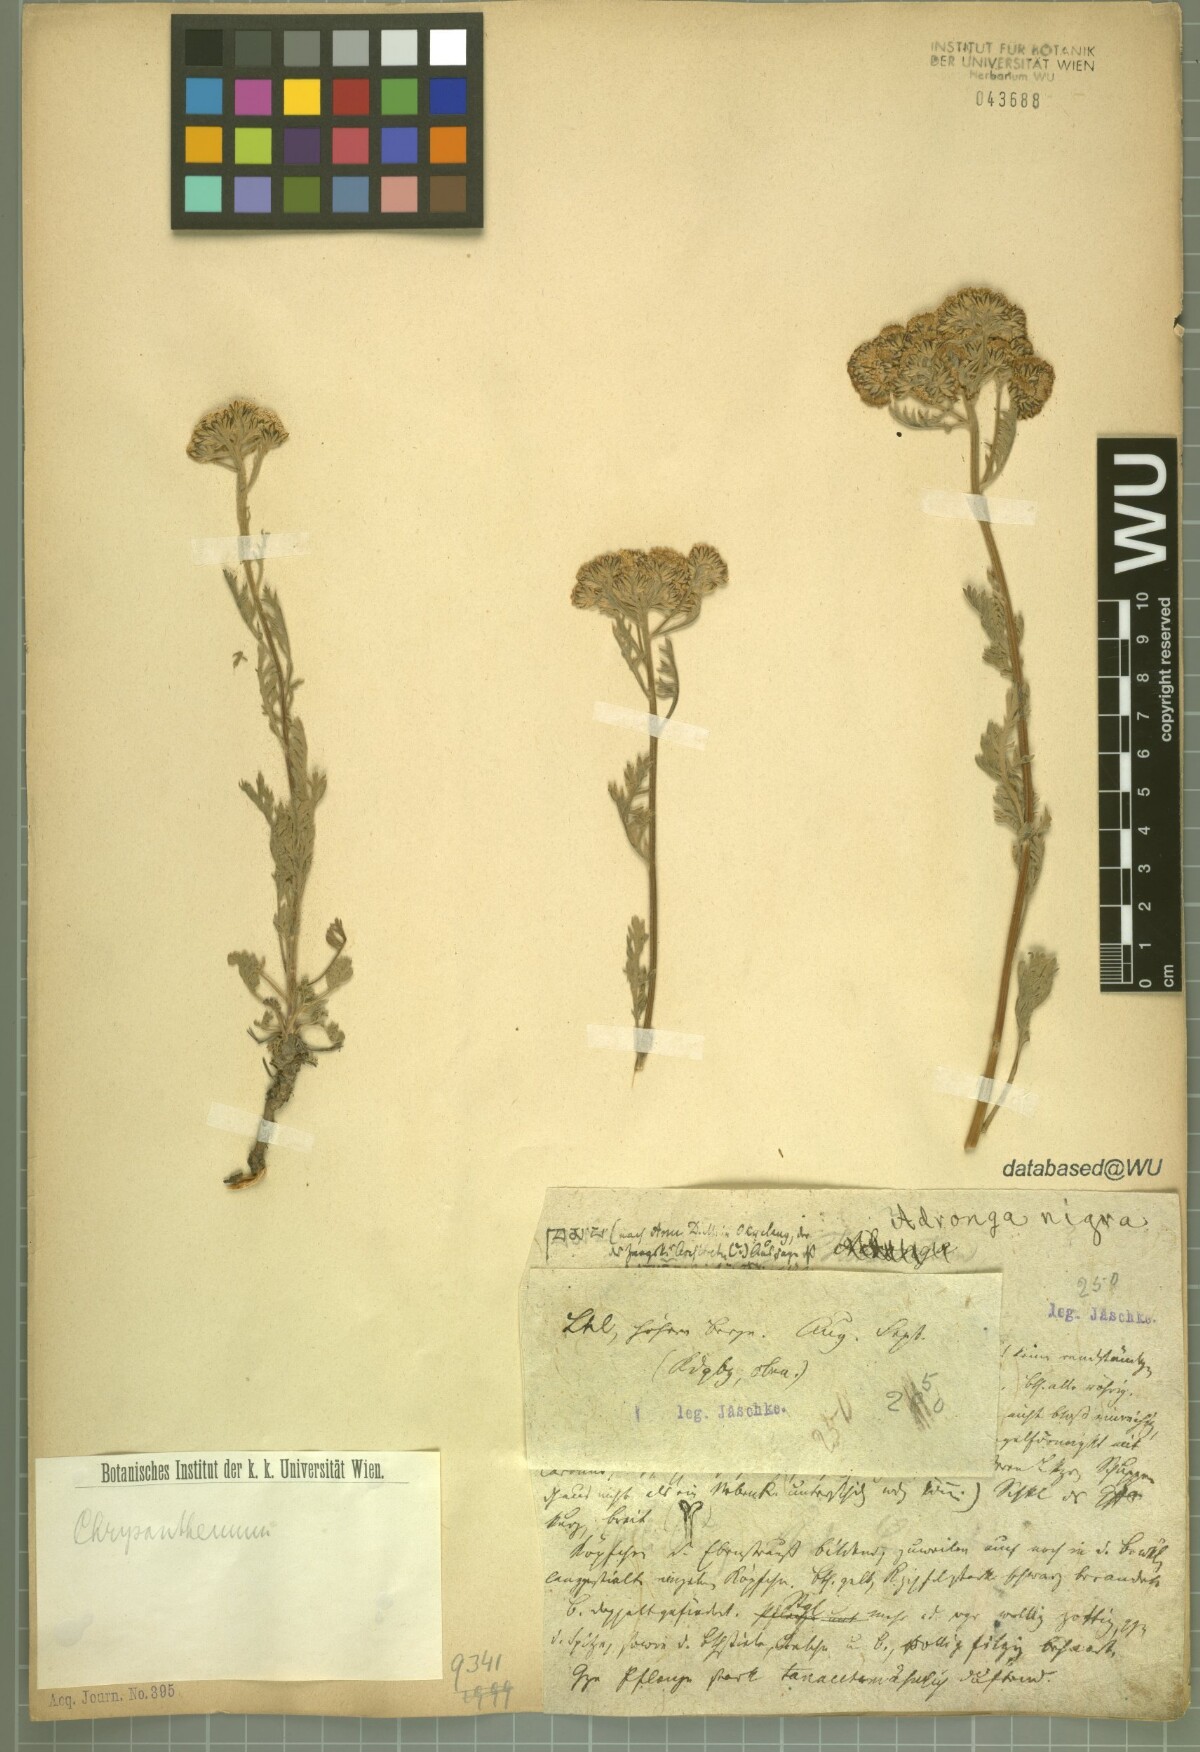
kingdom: Plantae
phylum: Tracheophyta
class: Magnoliopsida
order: Asterales
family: Asteraceae
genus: Chrysanthemum
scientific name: Chrysanthemum
